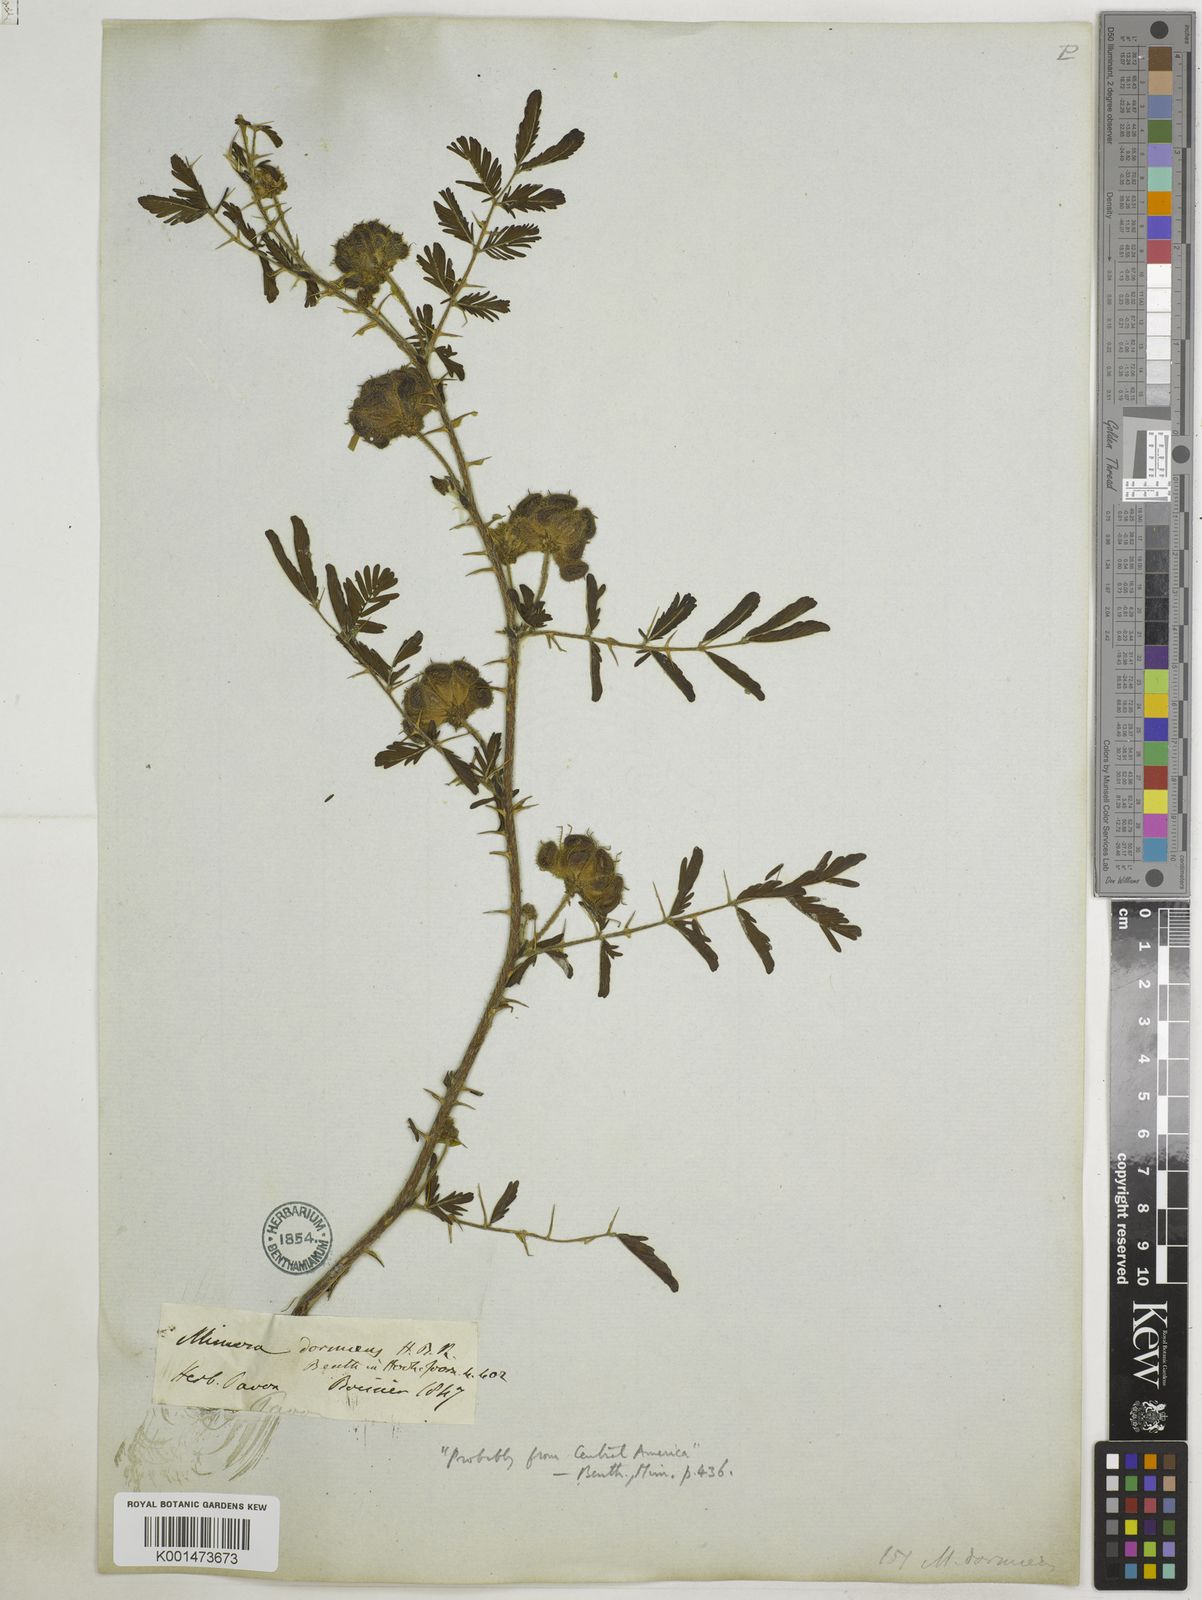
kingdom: Plantae
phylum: Tracheophyta
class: Magnoliopsida
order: Fabales
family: Fabaceae
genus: Mimosa
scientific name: Mimosa dormiens
